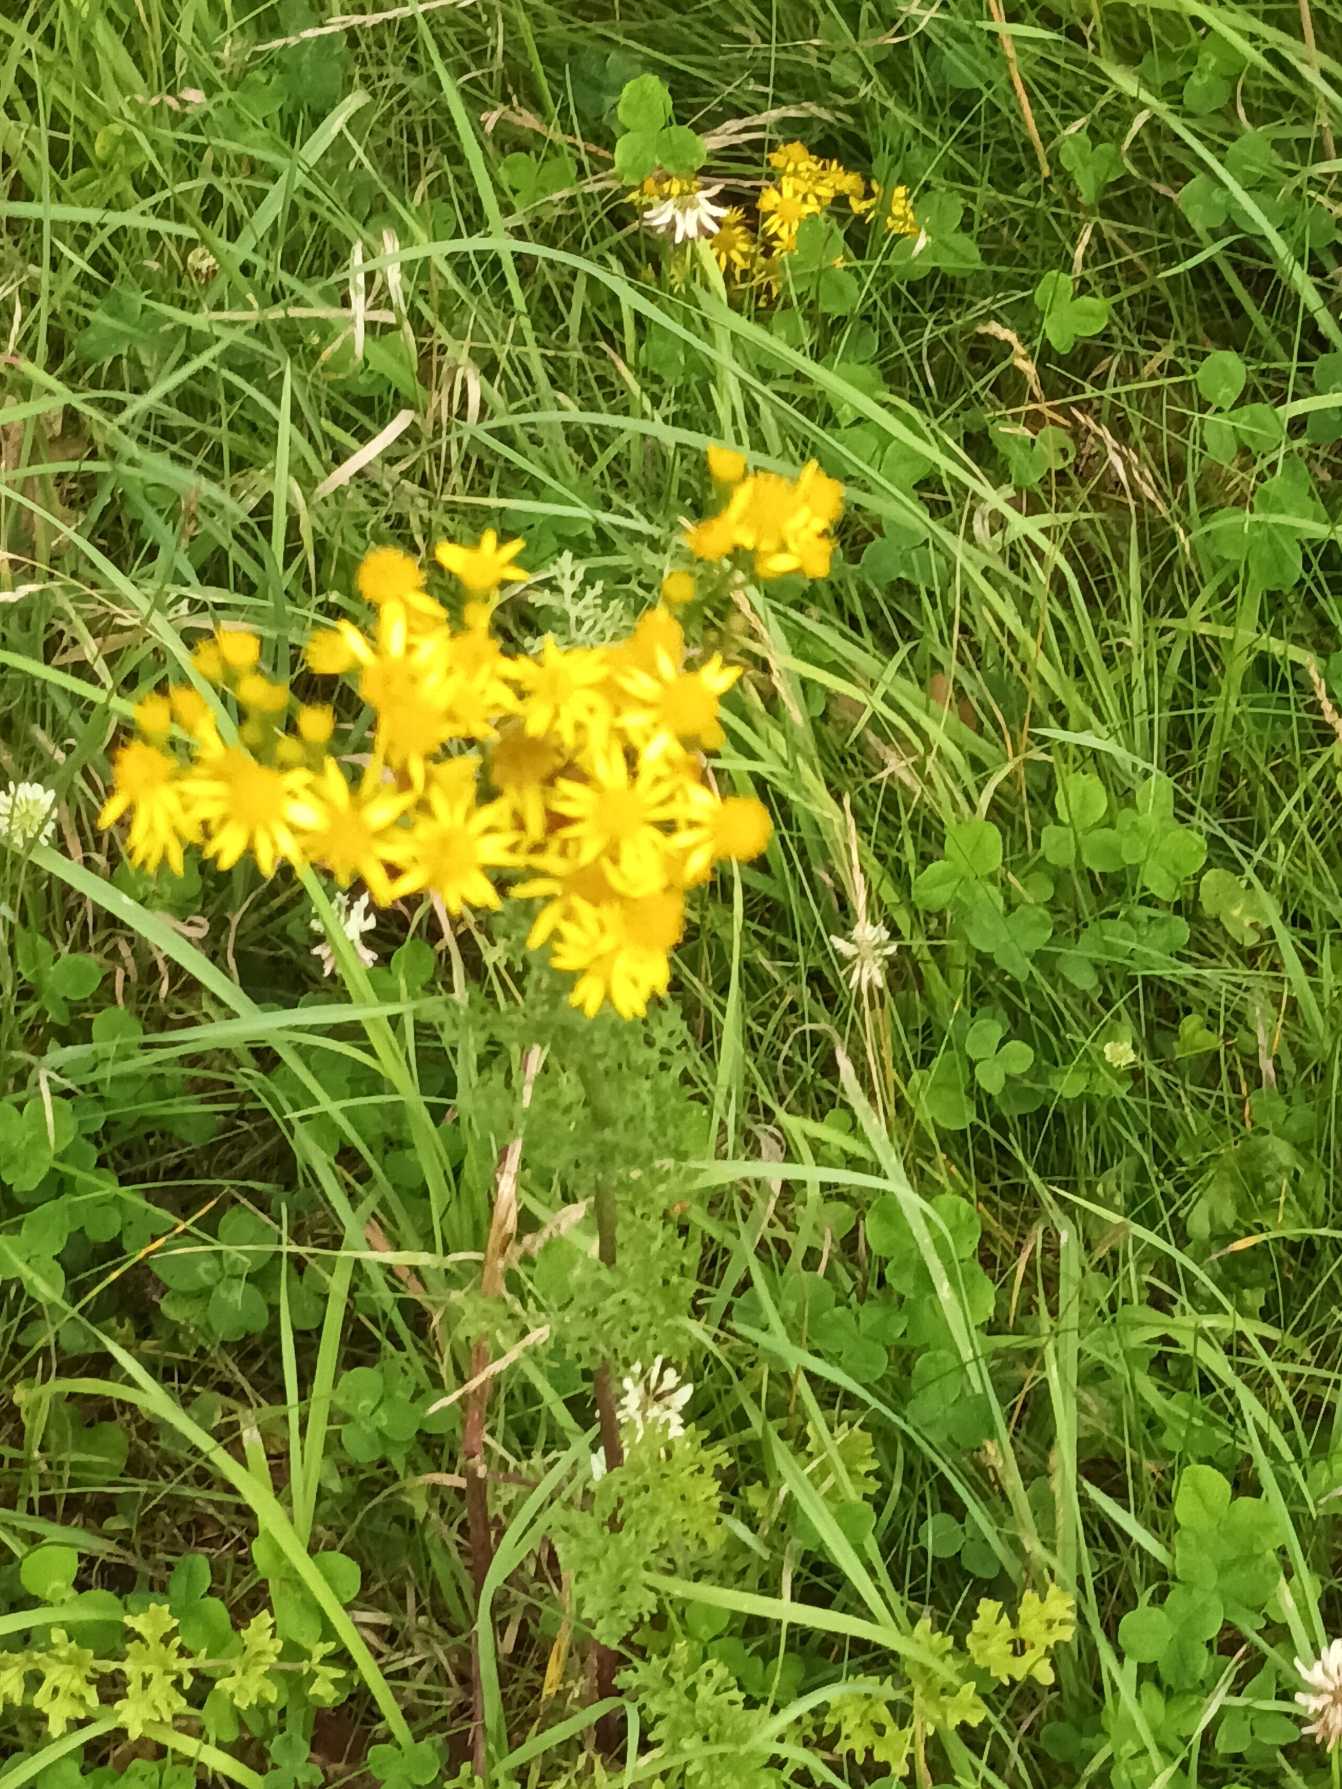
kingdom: Plantae
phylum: Tracheophyta
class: Magnoliopsida
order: Asterales
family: Asteraceae
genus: Jacobaea
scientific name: Jacobaea vulgaris
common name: Eng-brandbæger
